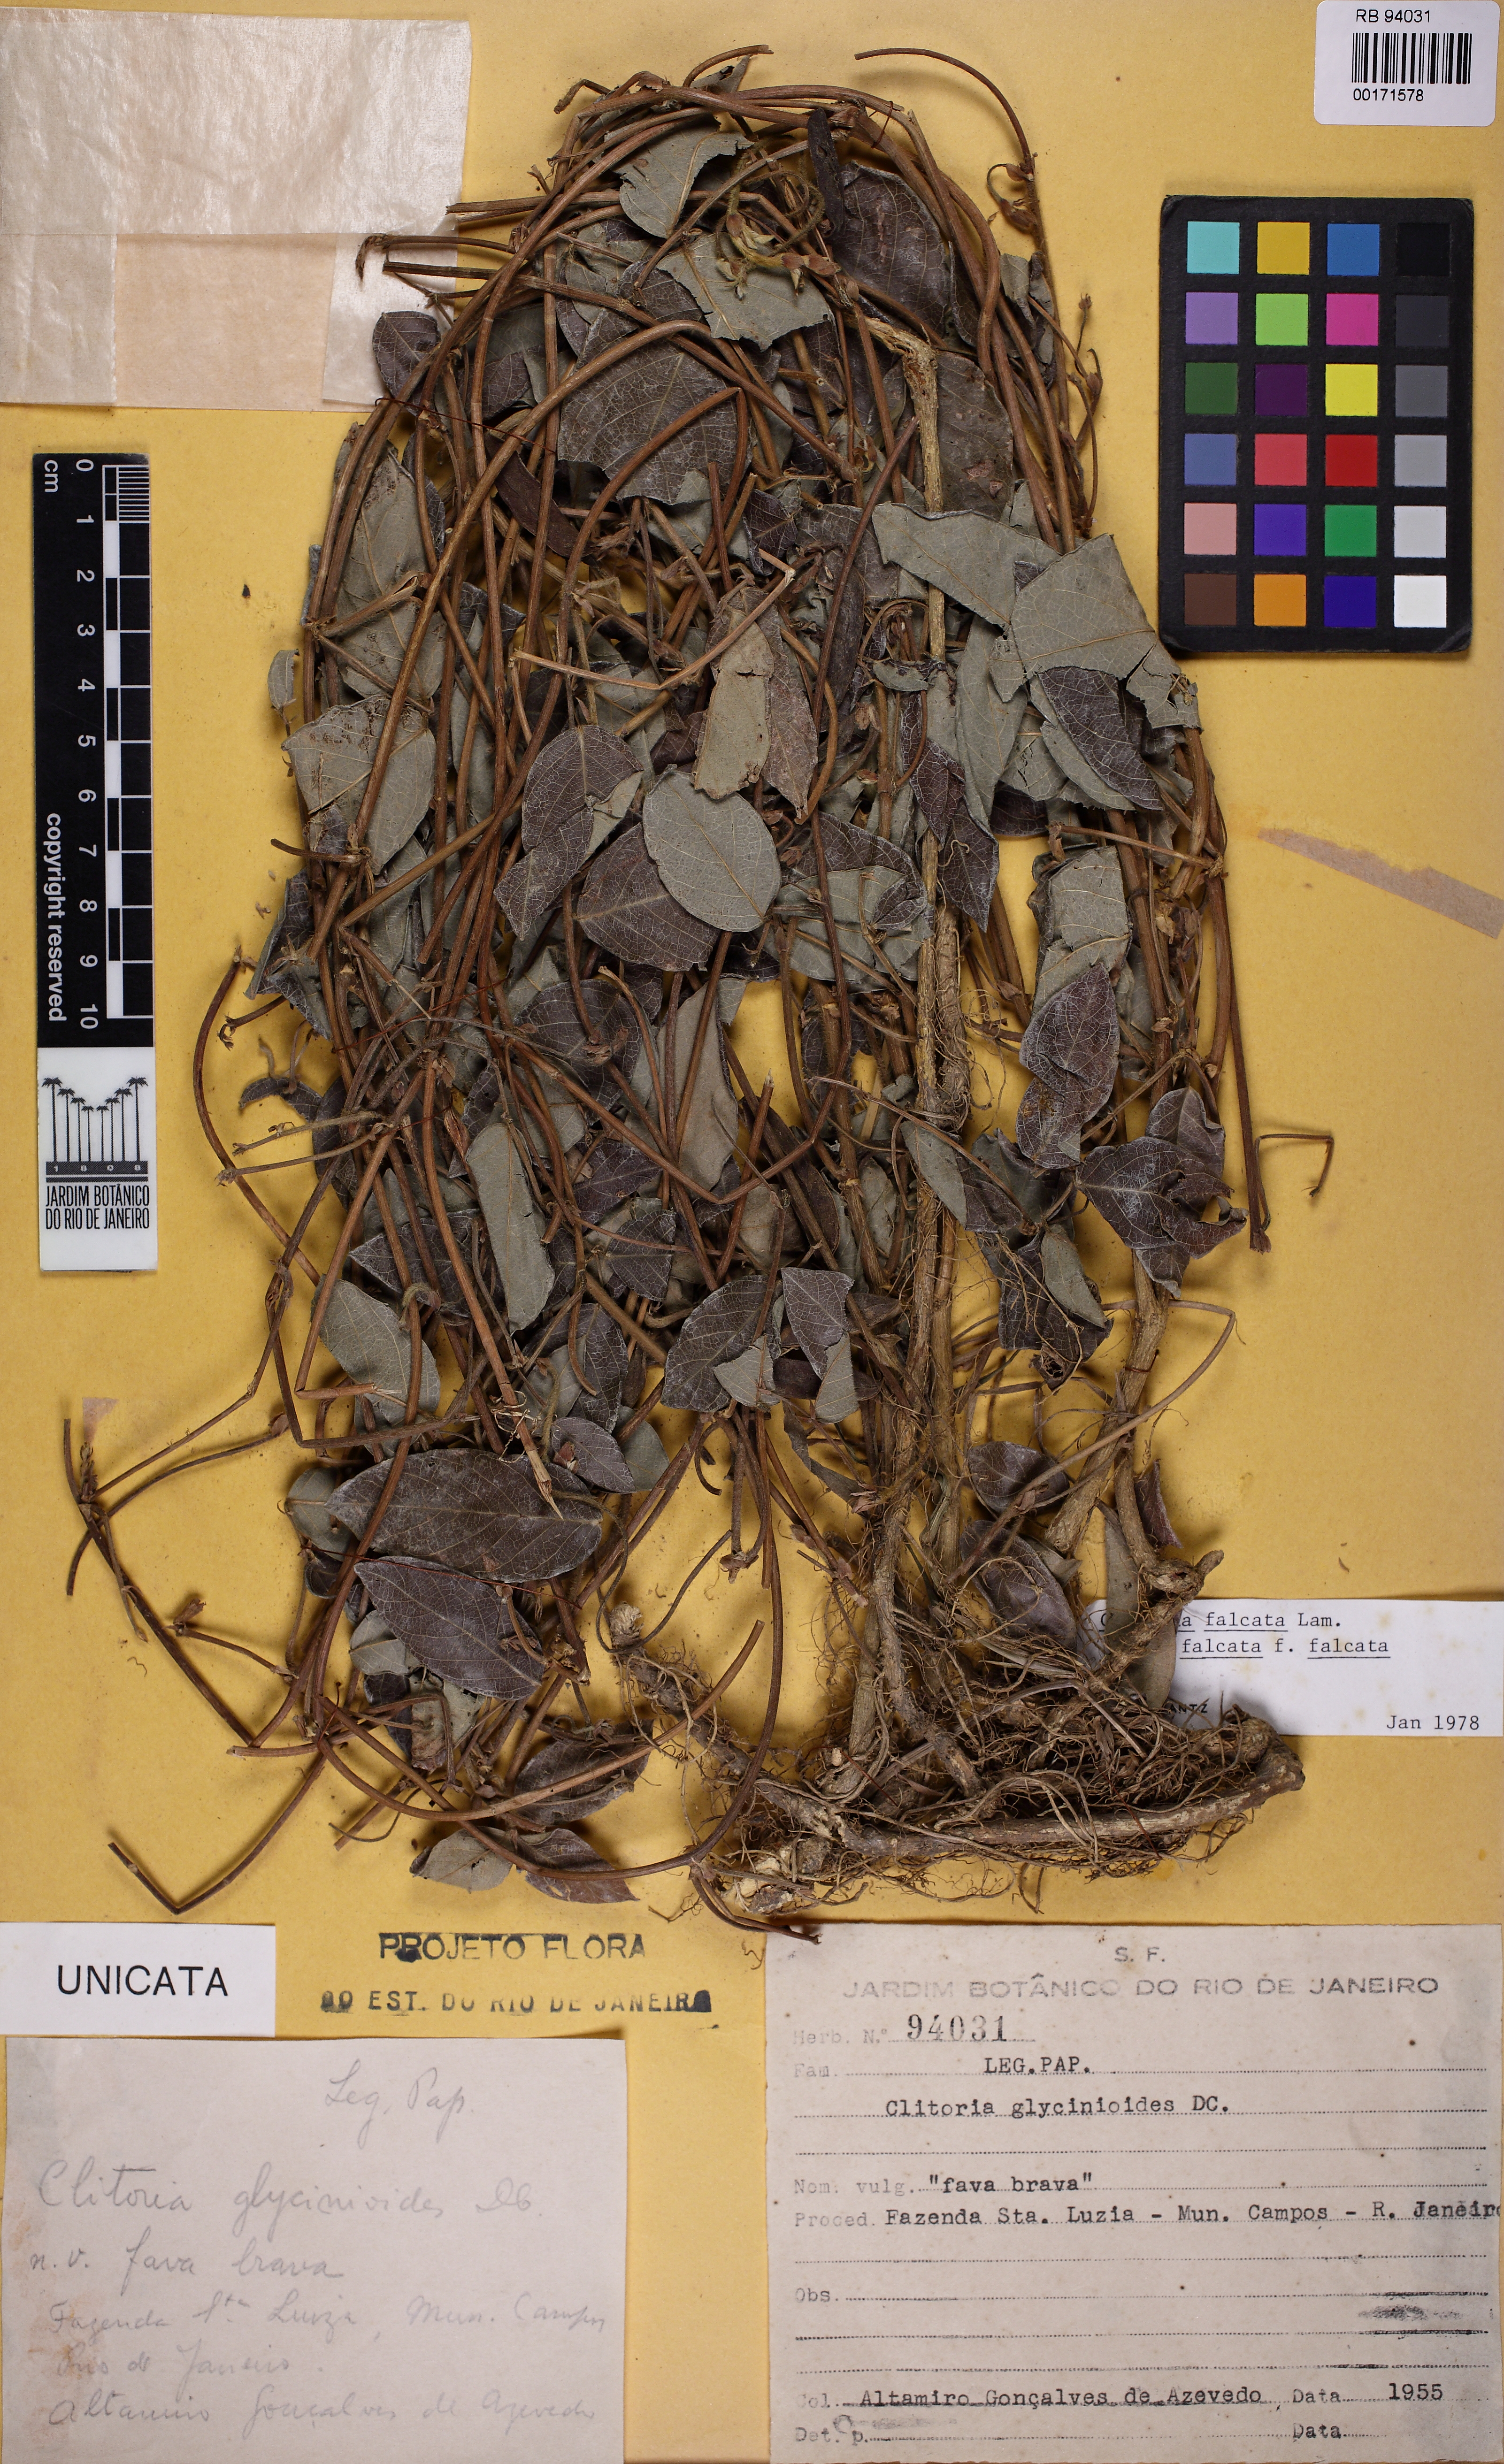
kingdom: Plantae
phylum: Tracheophyta
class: Magnoliopsida
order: Fabales
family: Fabaceae
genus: Clitoria
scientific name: Clitoria falcata
